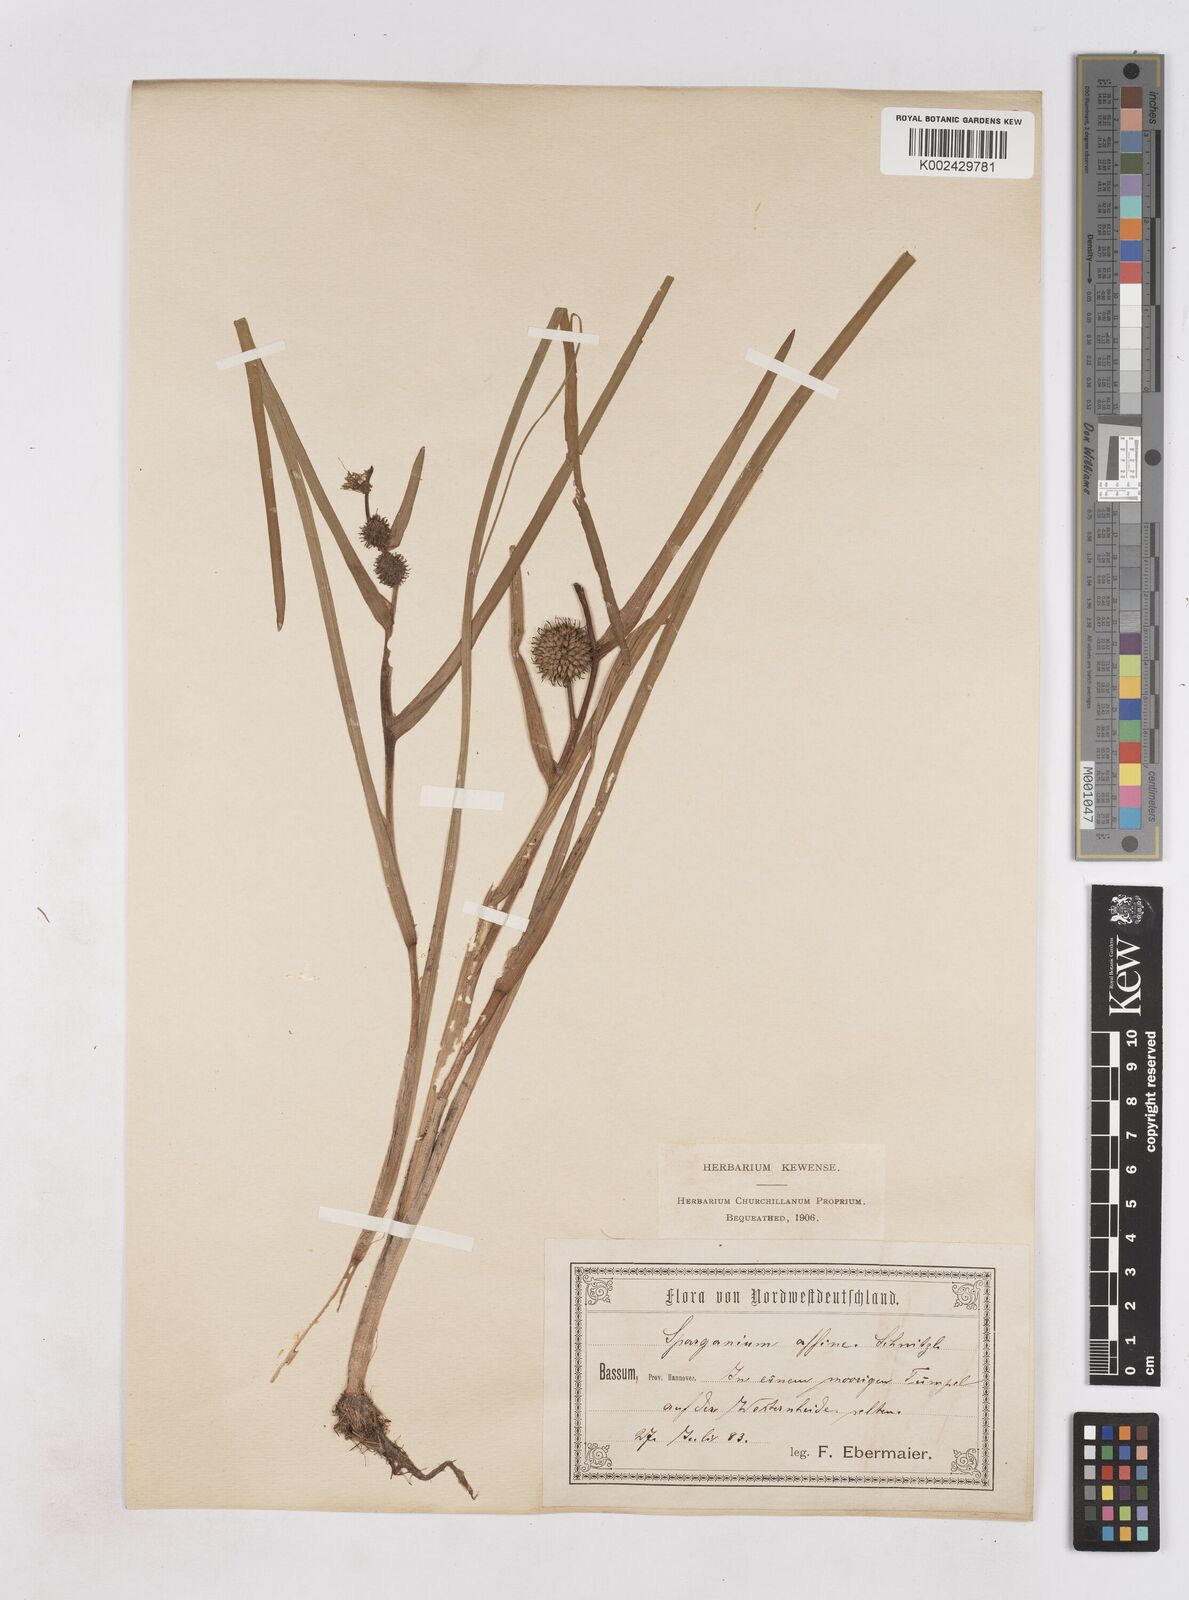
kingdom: Plantae
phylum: Tracheophyta
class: Liliopsida
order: Poales
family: Typhaceae
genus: Sparganium
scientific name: Sparganium angustifolium
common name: Floating bur-reed
